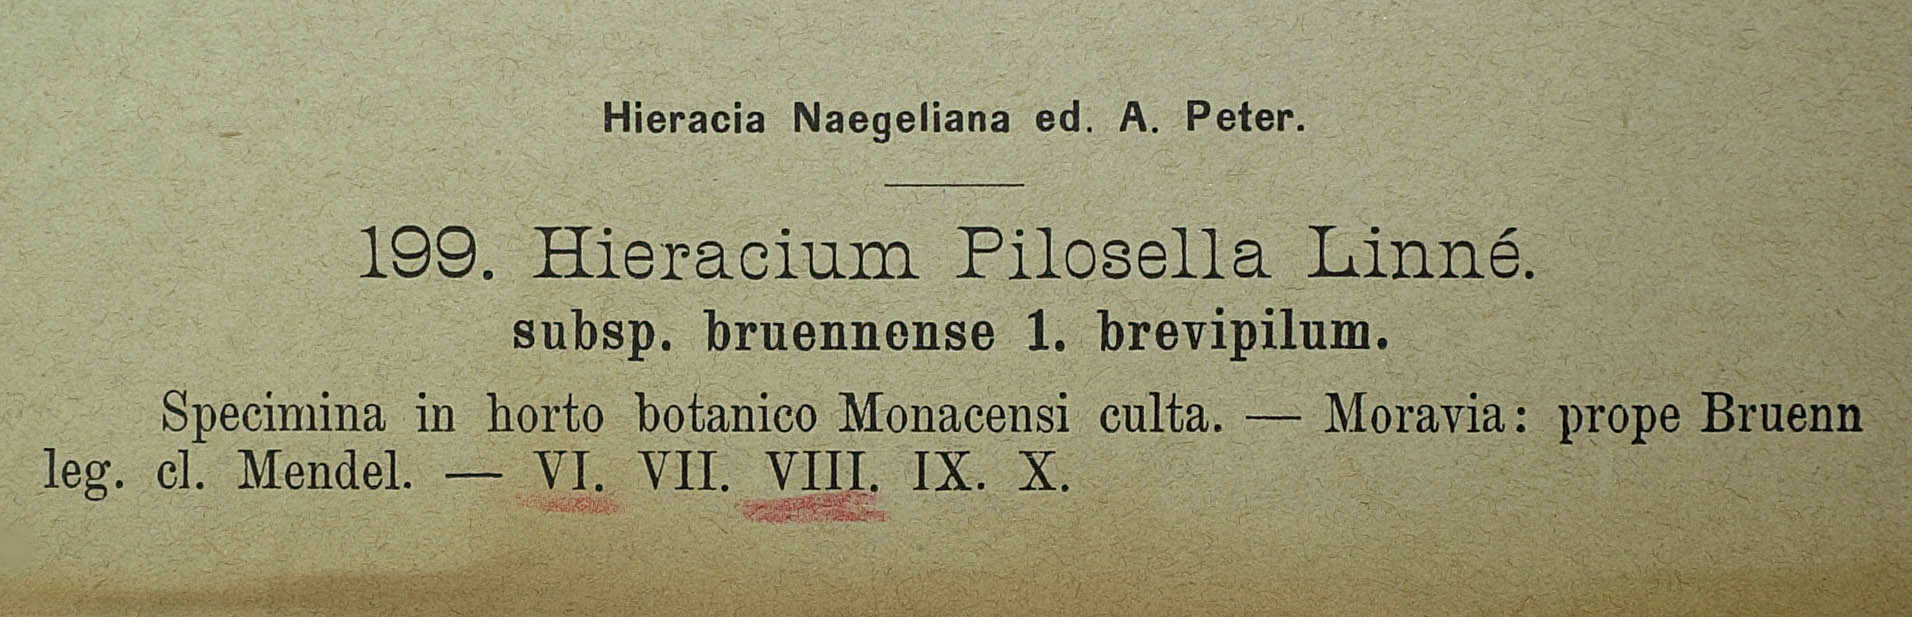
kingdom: Plantae
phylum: Tracheophyta
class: Magnoliopsida
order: Asterales
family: Asteraceae
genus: Pilosella
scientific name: Pilosella officinarum
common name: Mouse-ear hawkweed
